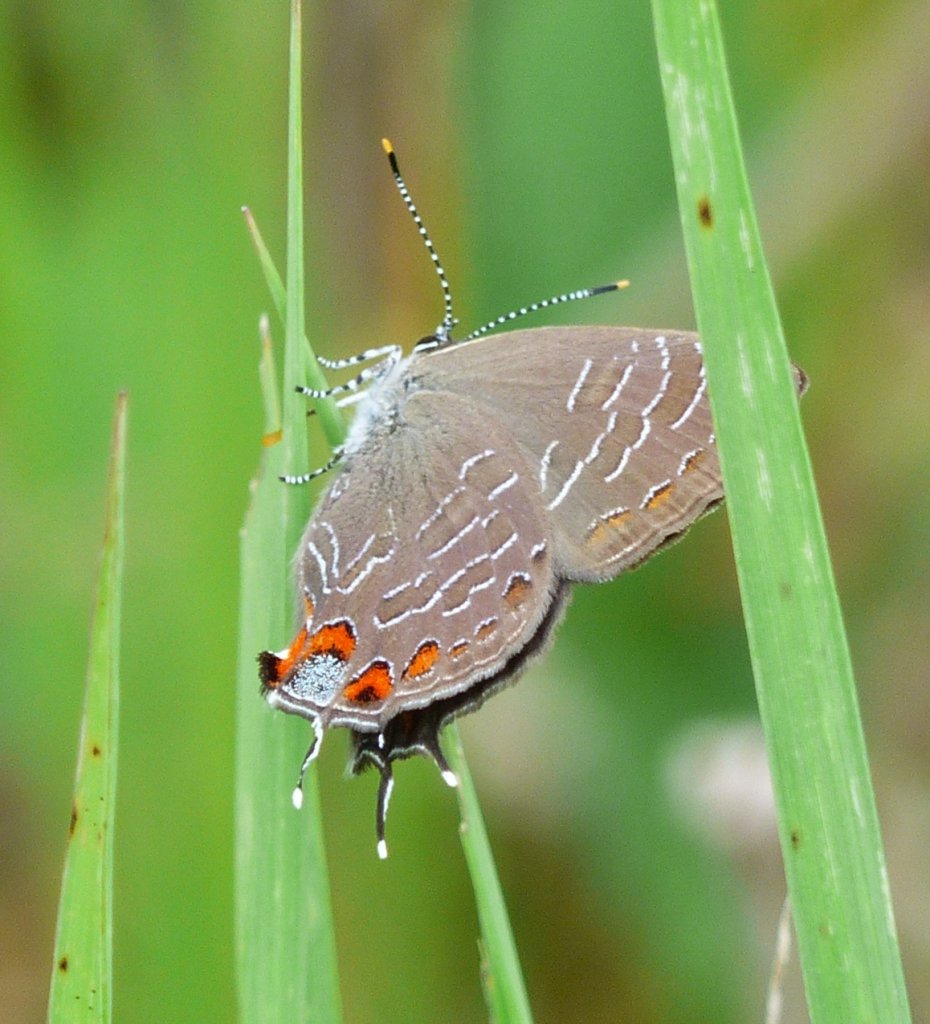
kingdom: Animalia
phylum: Arthropoda
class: Insecta
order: Lepidoptera
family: Lycaenidae
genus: Satyrium
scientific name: Satyrium liparops
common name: Striped Hairstreak
